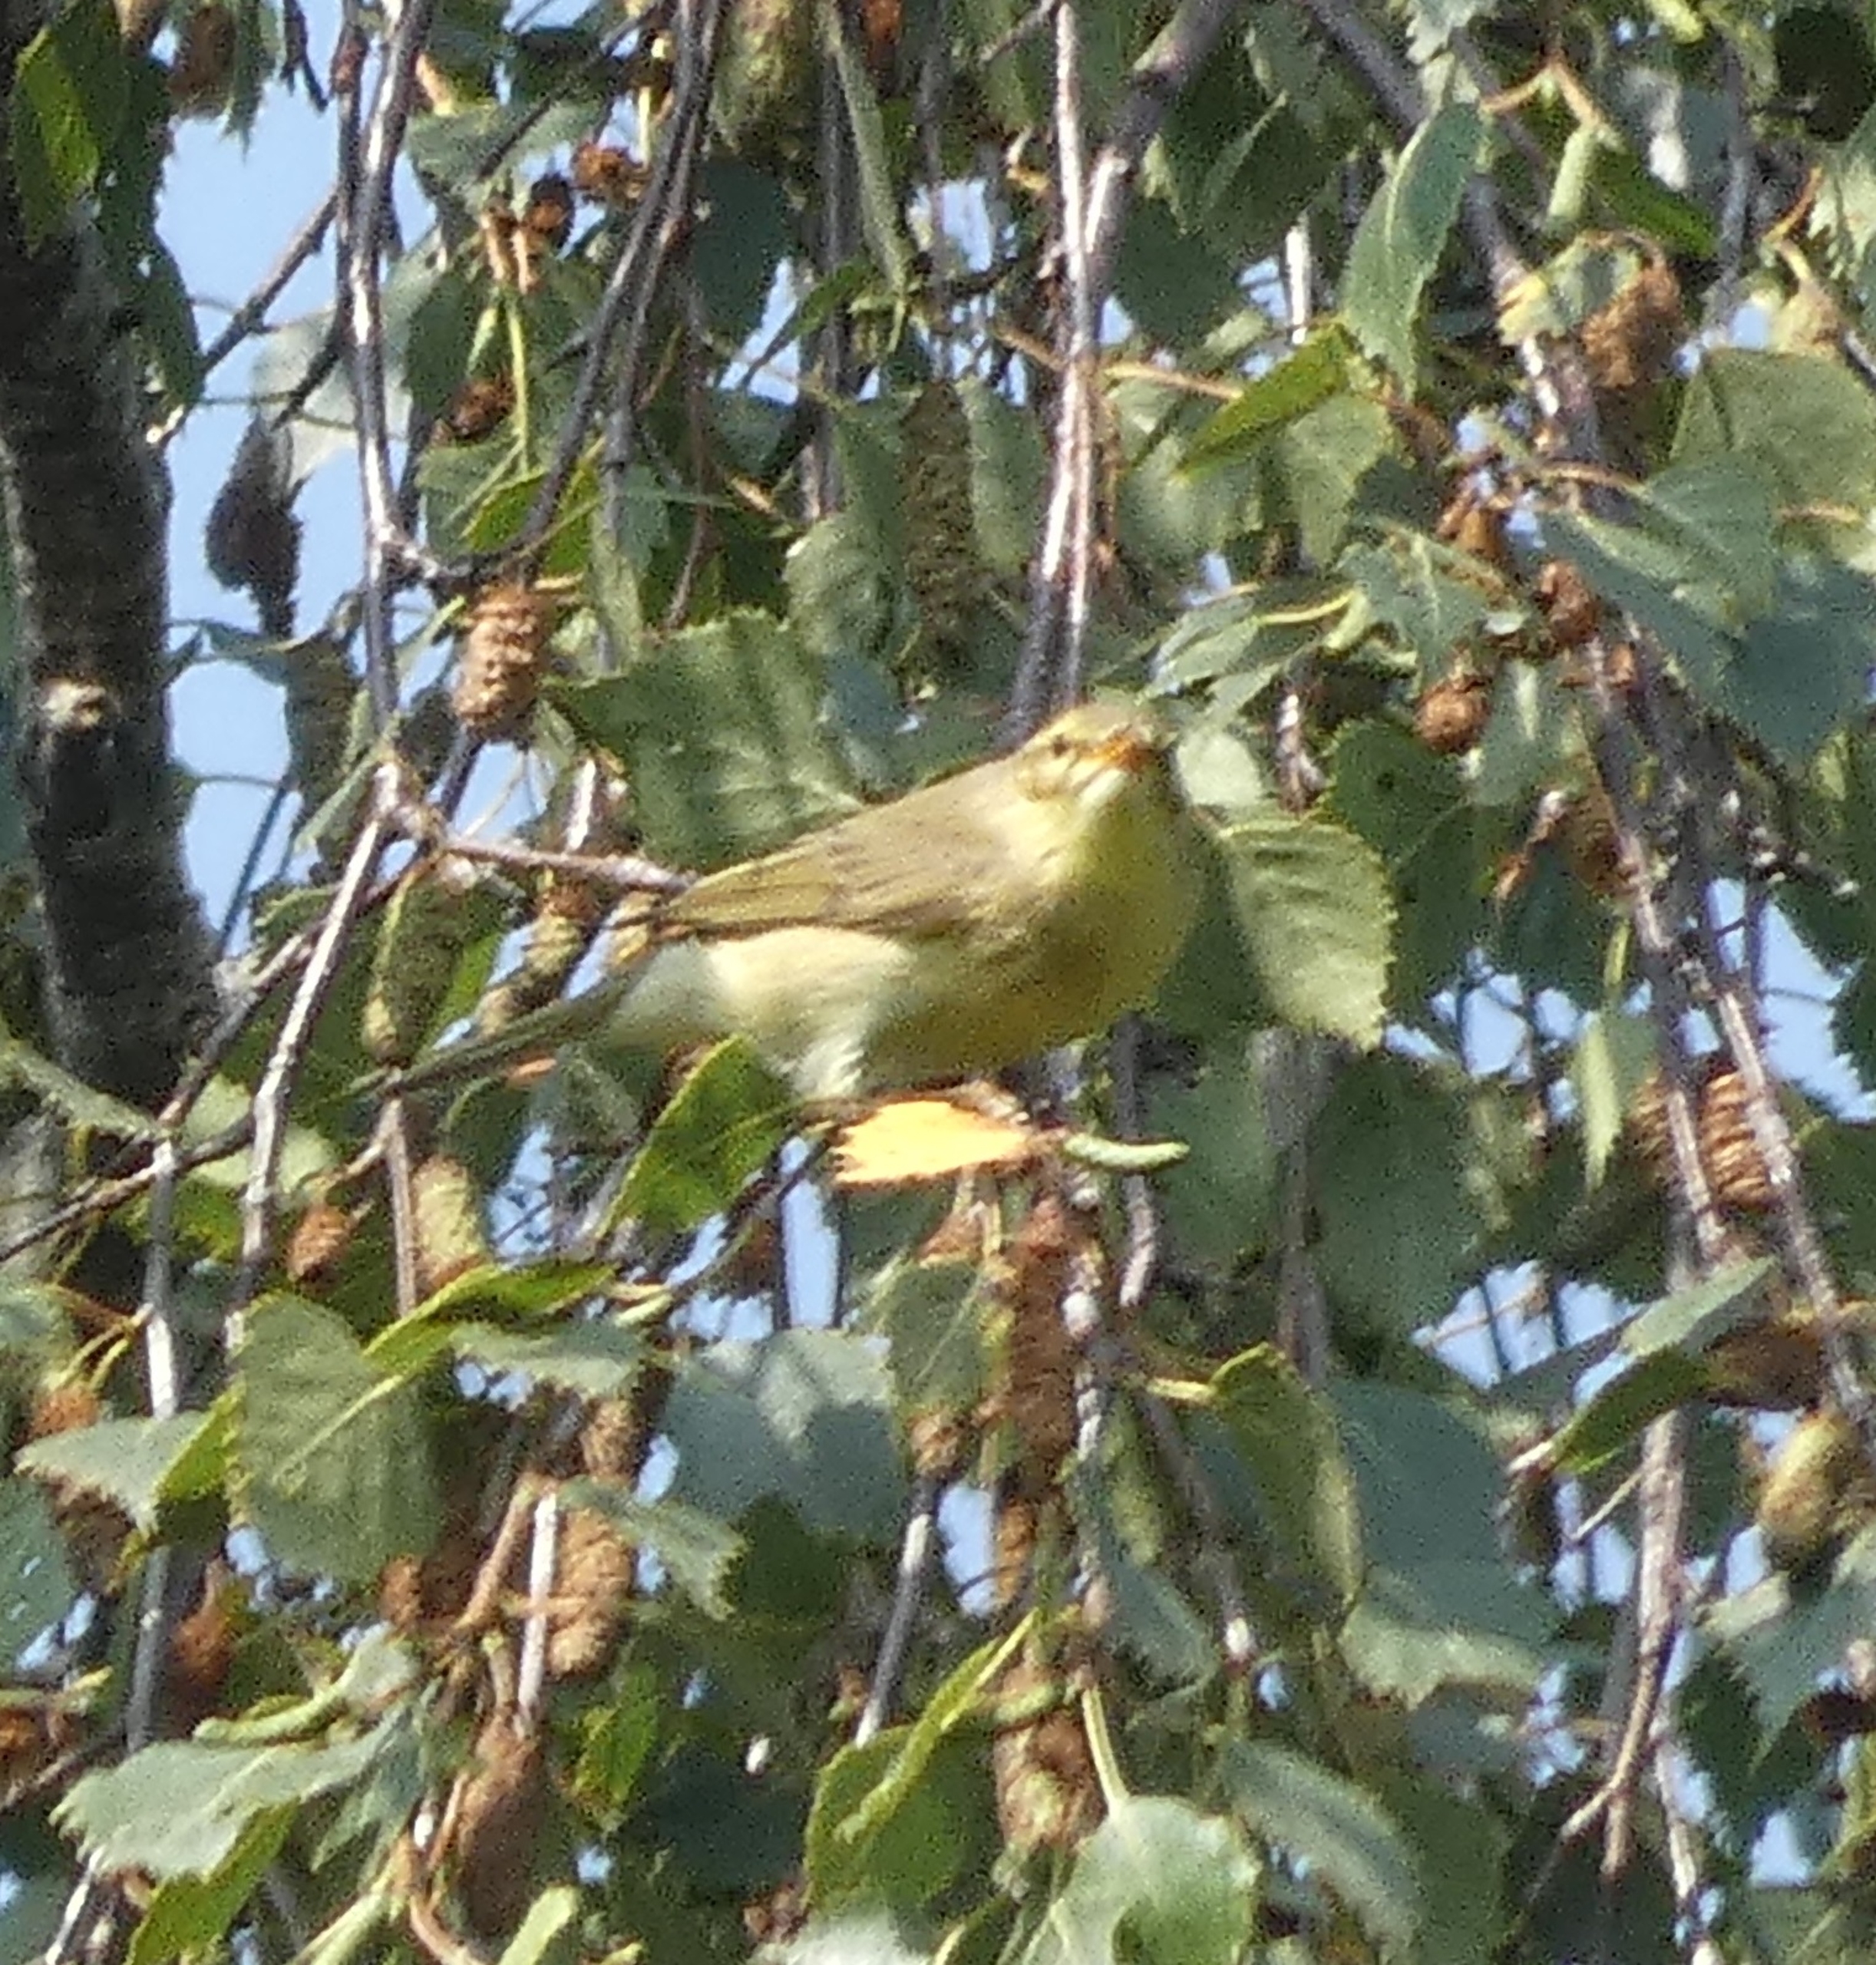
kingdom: Animalia
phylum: Chordata
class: Aves
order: Passeriformes
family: Phylloscopidae
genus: Phylloscopus
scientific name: Phylloscopus trochilus
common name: Løvsanger
